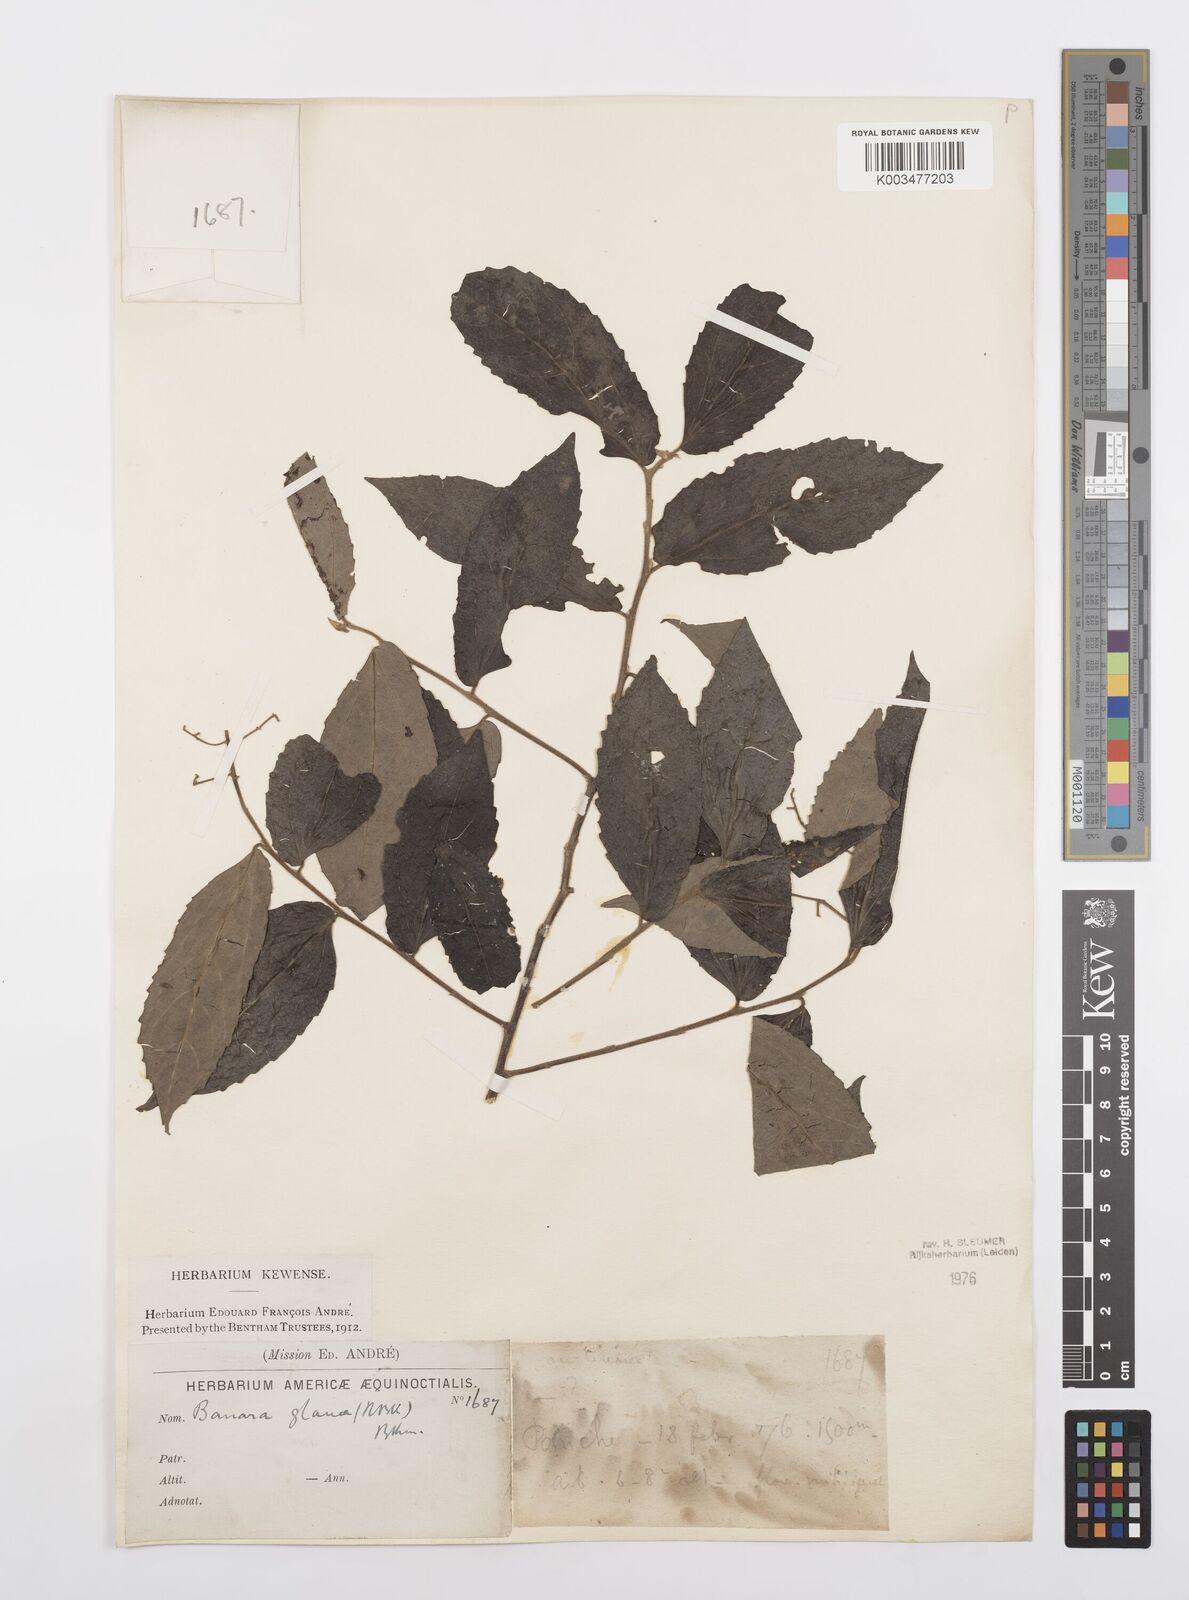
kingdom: Plantae
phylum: Tracheophyta
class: Magnoliopsida
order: Malpighiales
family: Salicaceae
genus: Banara
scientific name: Banara glauca
